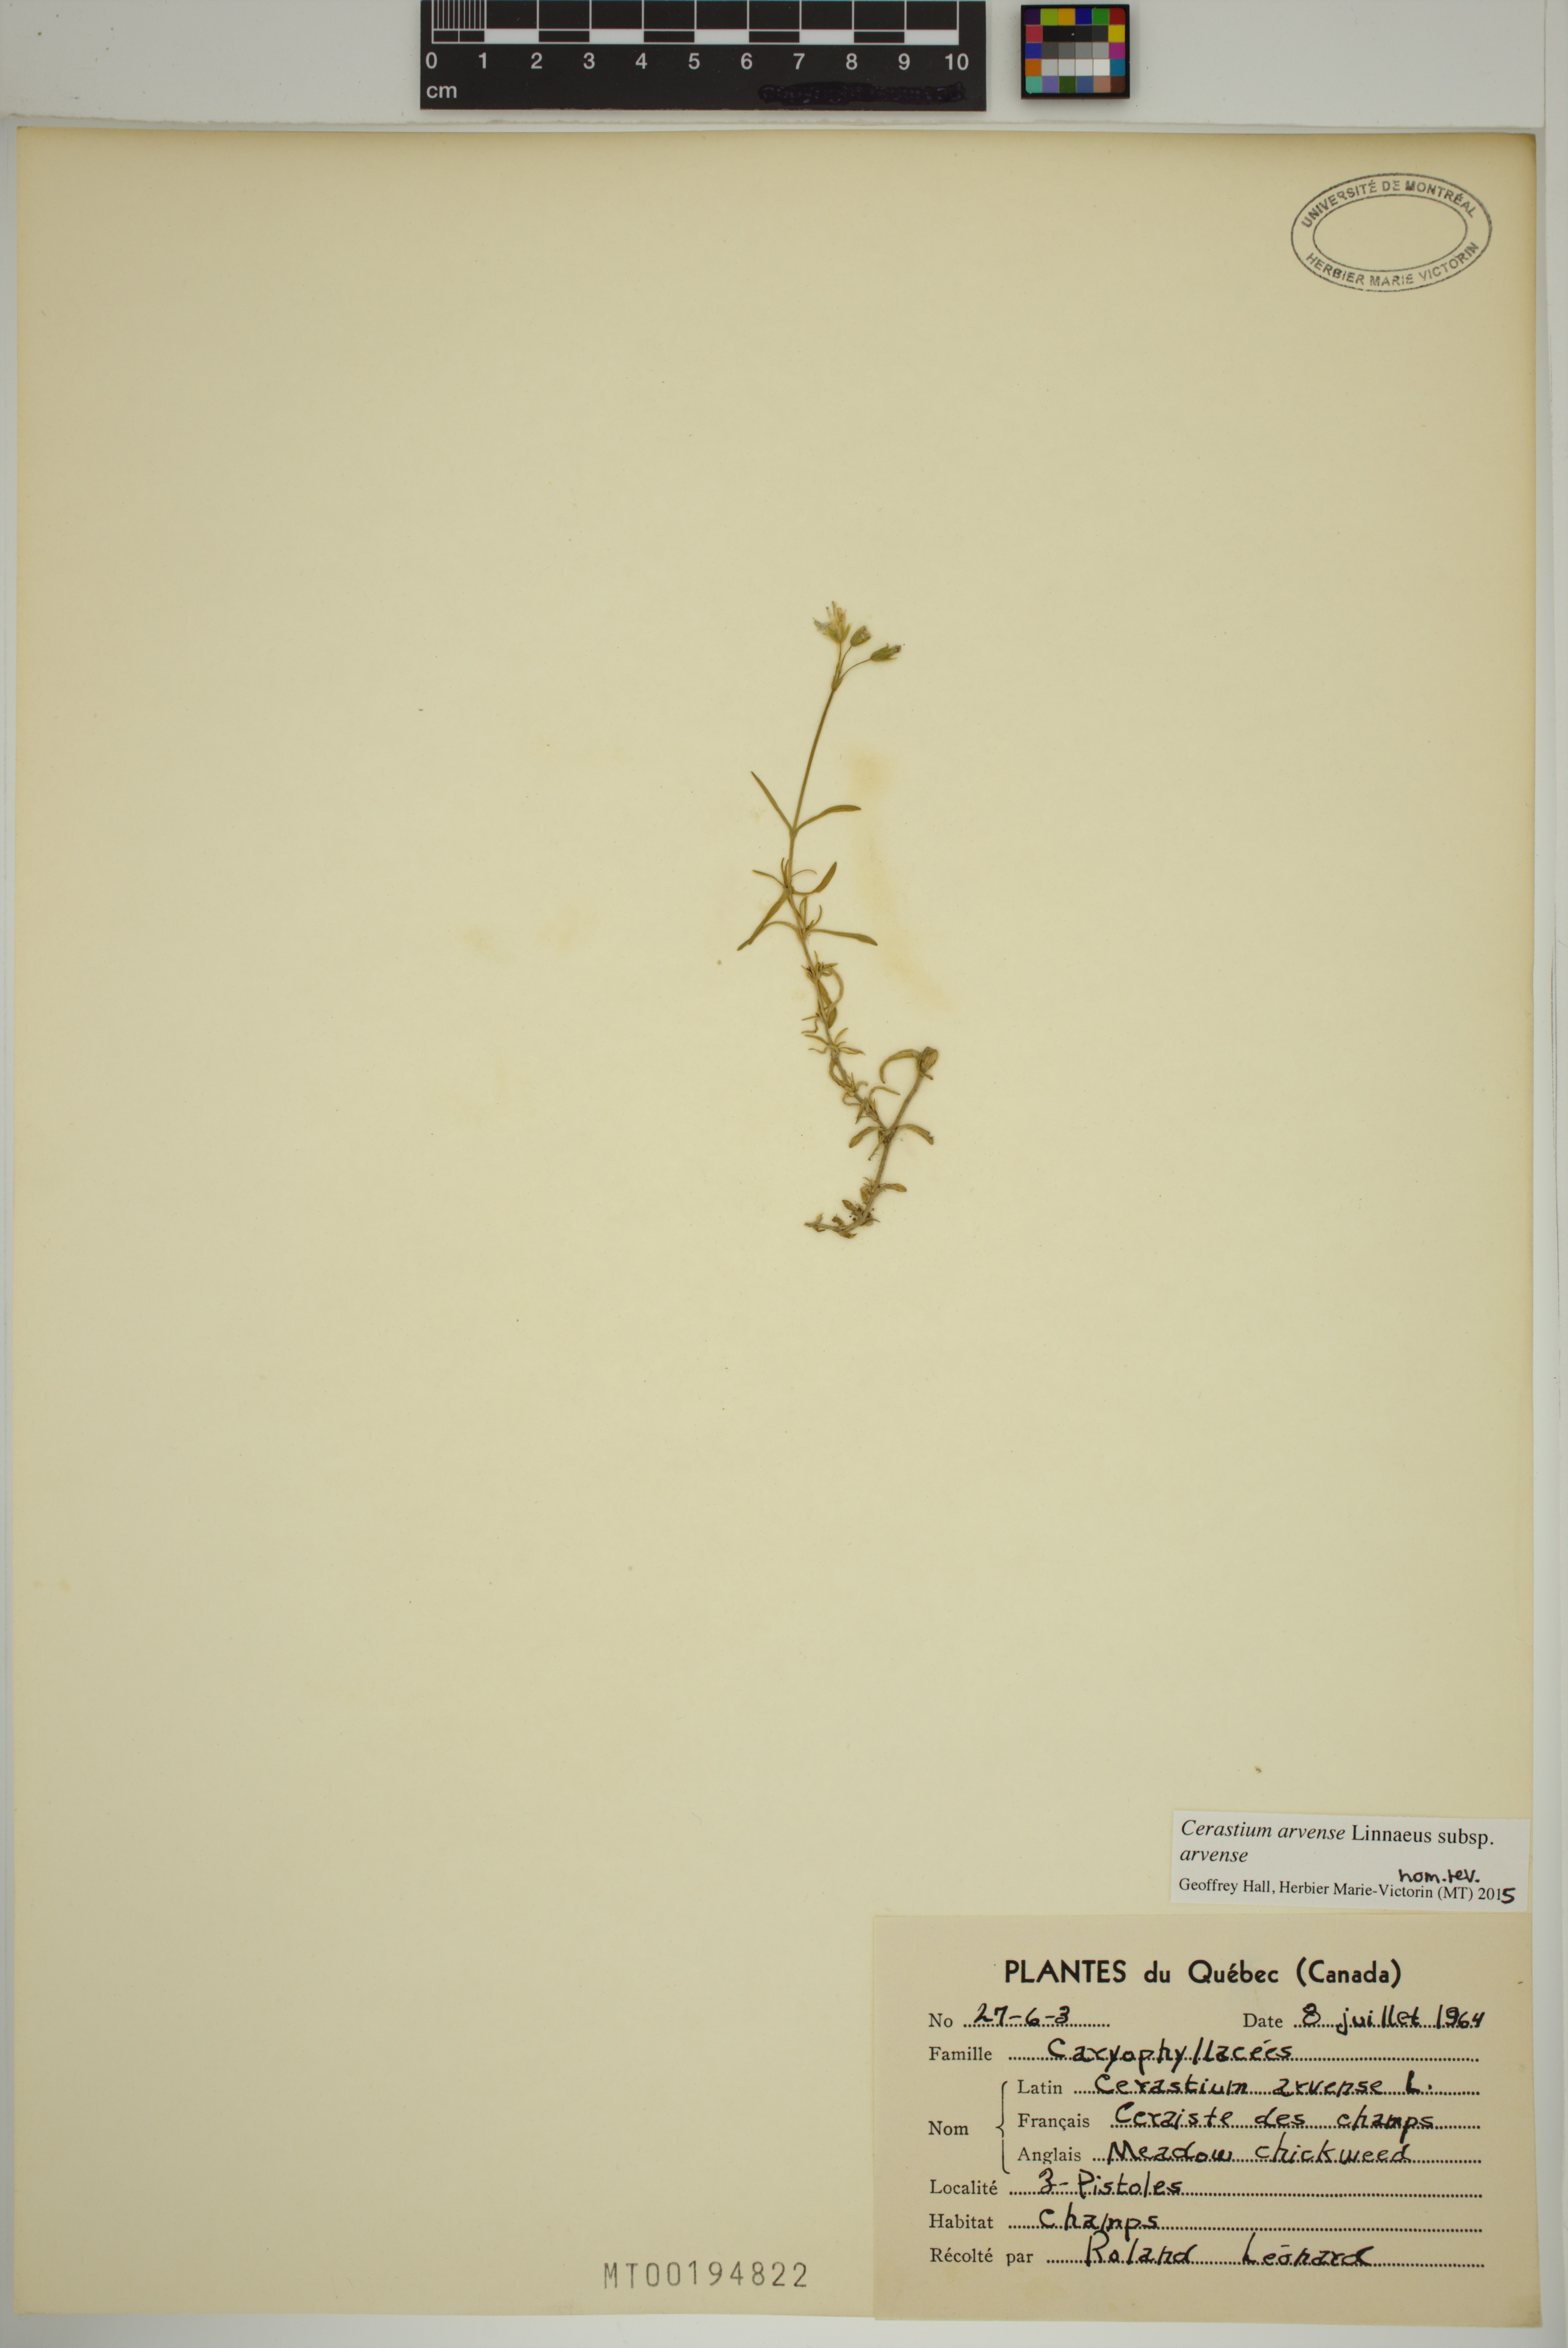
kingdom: Plantae
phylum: Tracheophyta
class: Magnoliopsida
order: Caryophyllales
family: Caryophyllaceae
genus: Cerastium
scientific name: Cerastium arvense
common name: Field mouse-ear
